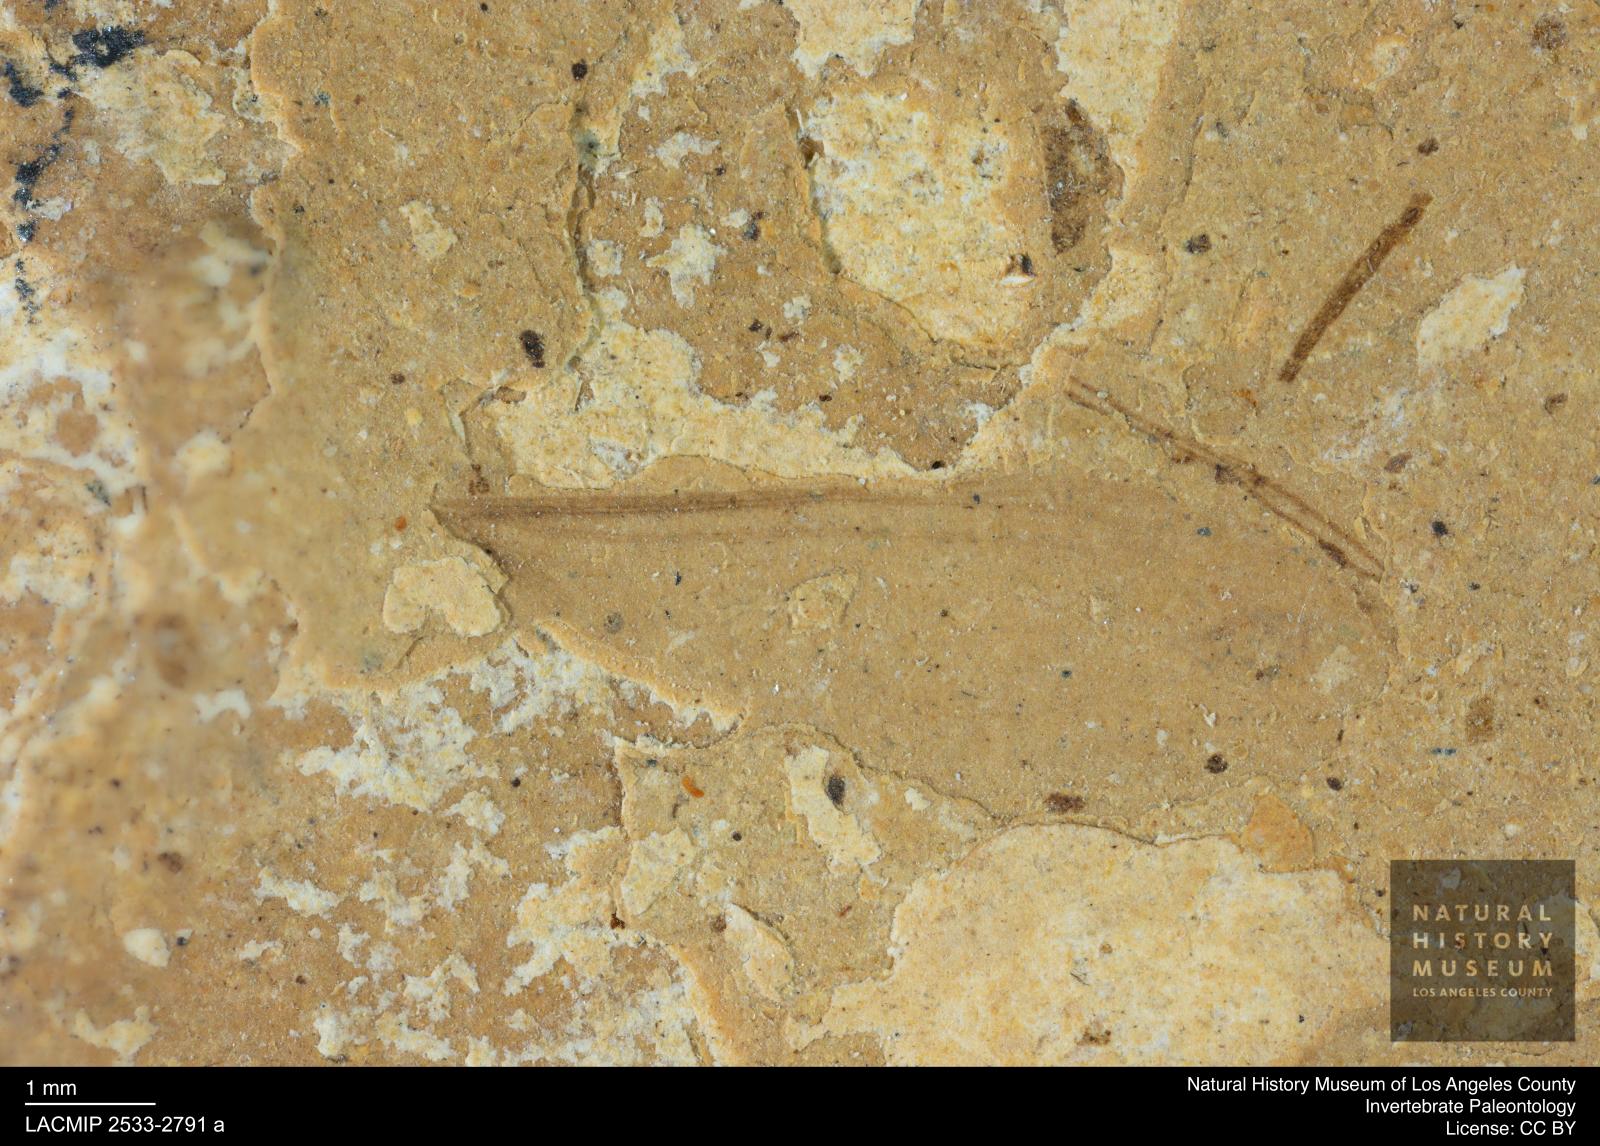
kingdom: Animalia
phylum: Arthropoda
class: Insecta
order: Blattodea
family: Kalotermitidae
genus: Kalotermes
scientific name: Kalotermes rhenanus
